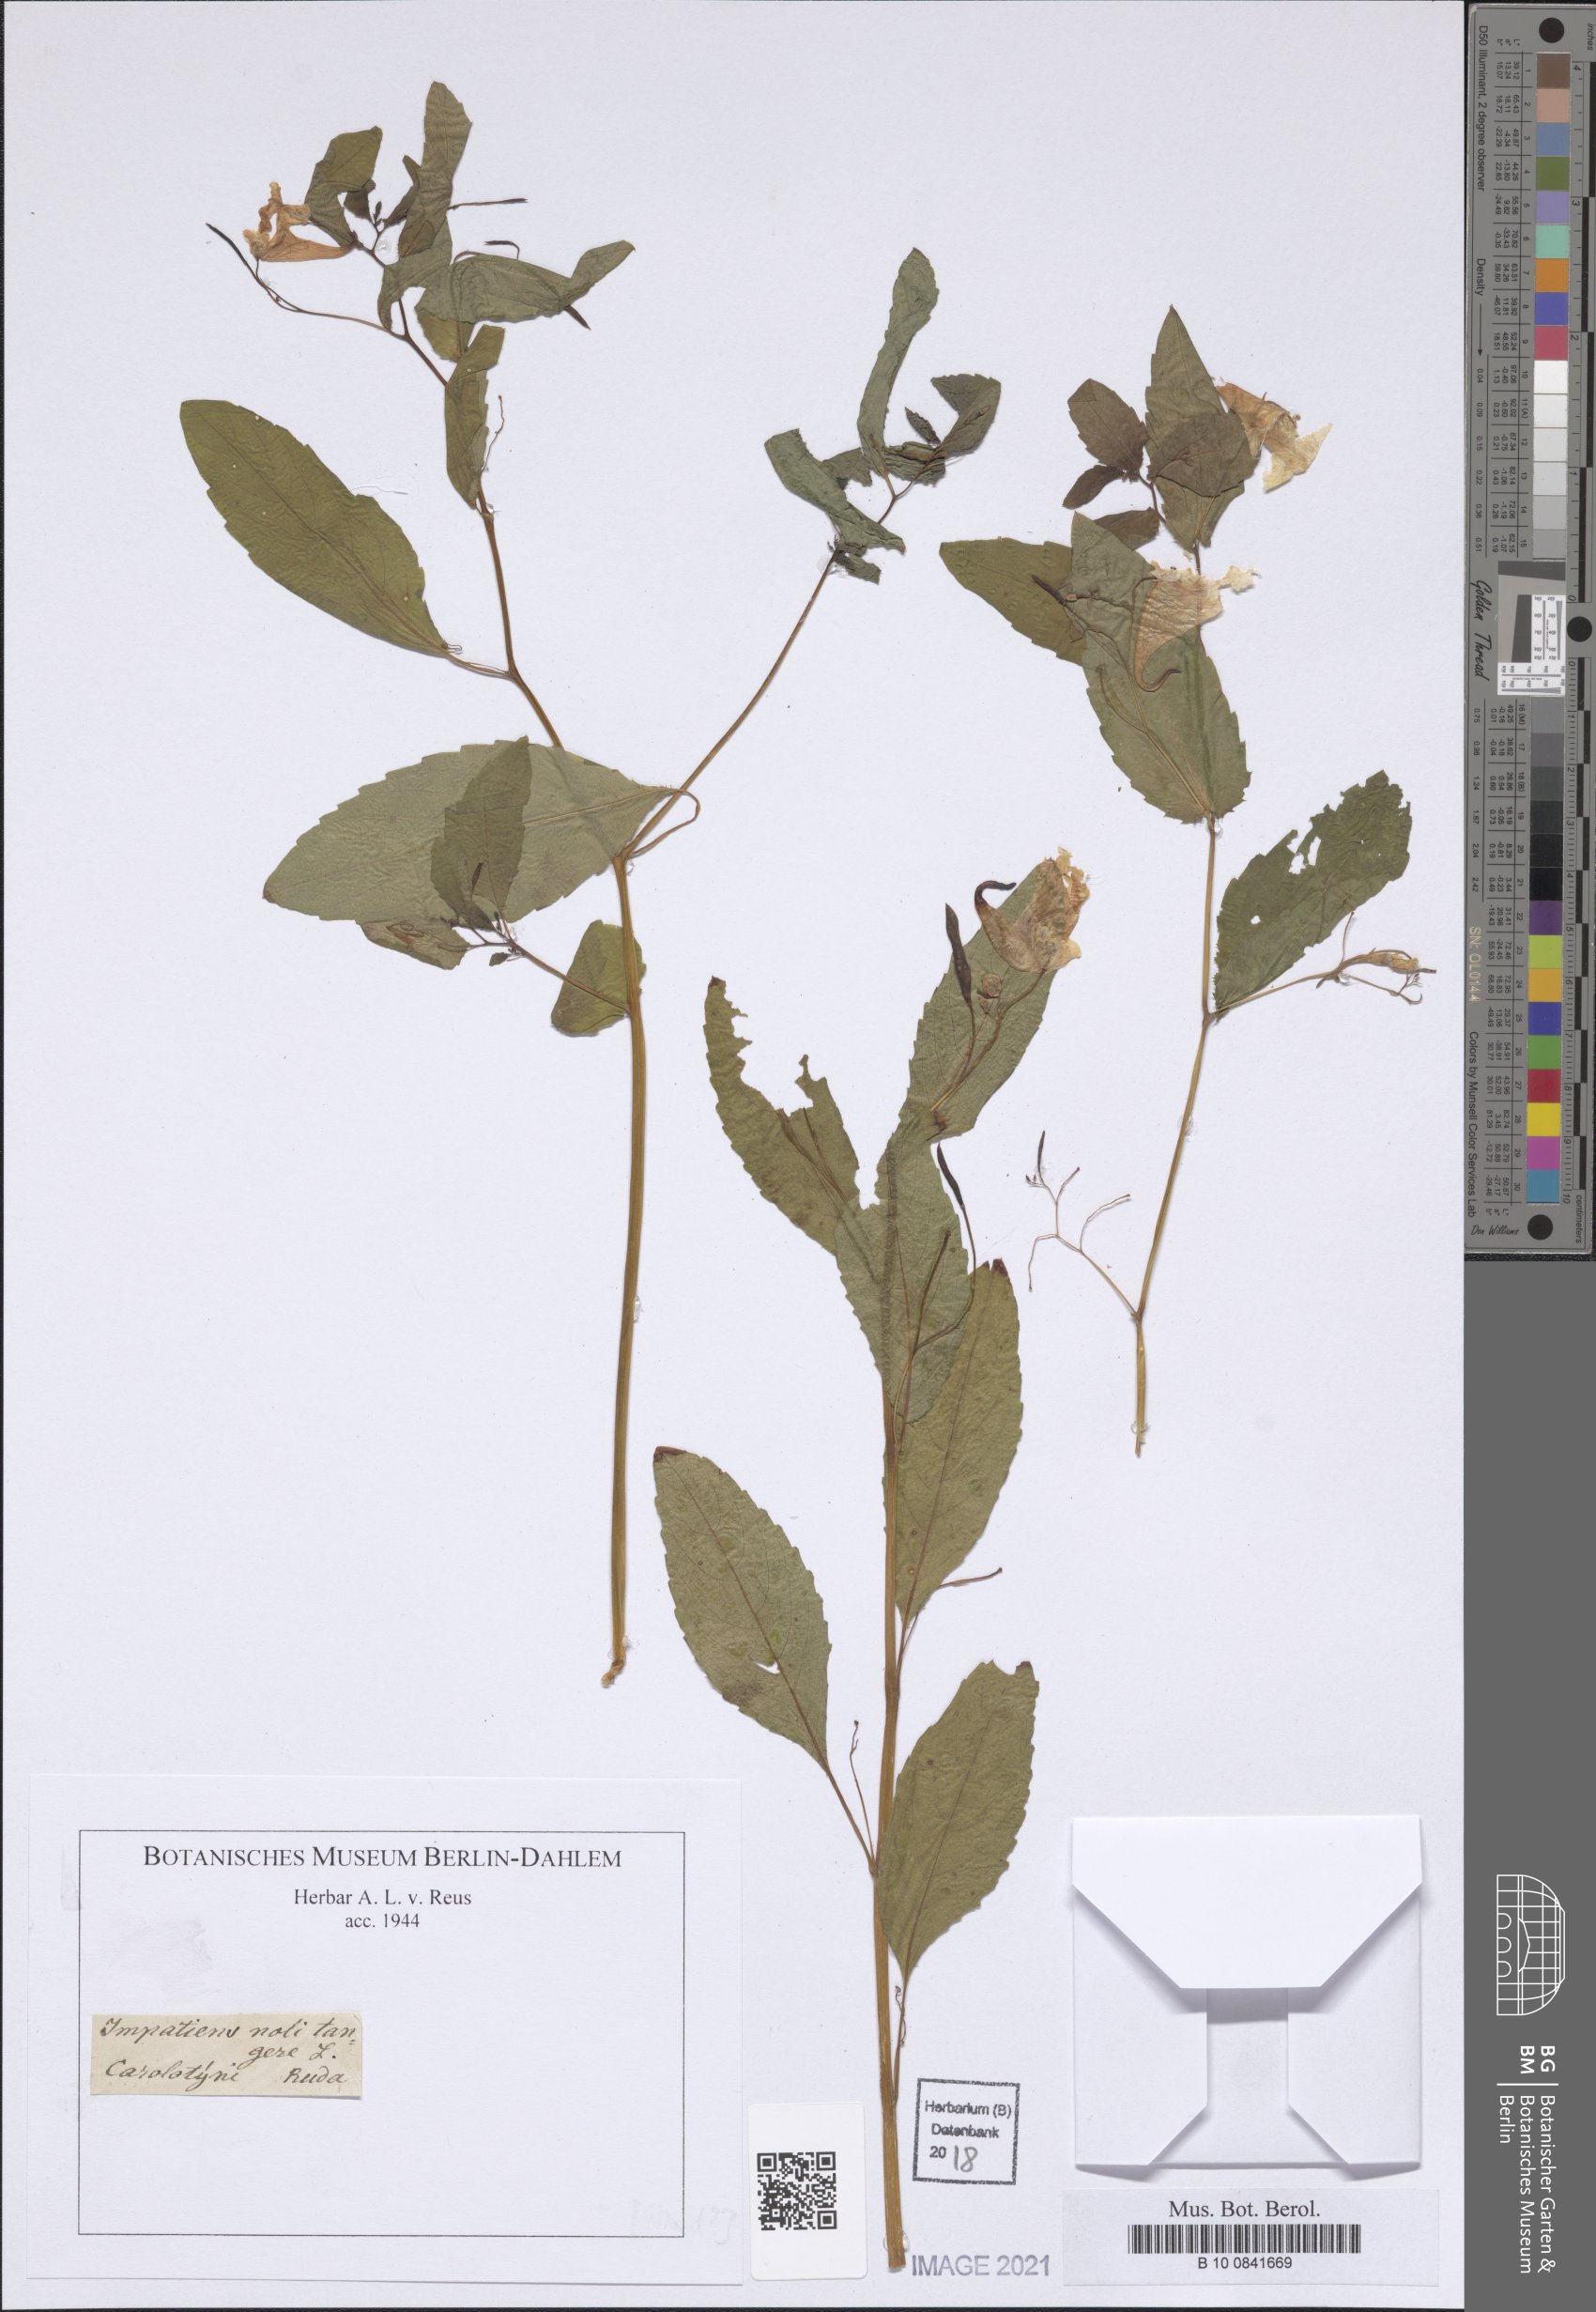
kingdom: Plantae
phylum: Tracheophyta
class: Magnoliopsida
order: Ericales
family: Balsaminaceae
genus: Impatiens
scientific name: Impatiens noli-tangere
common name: Touch-me-not balsam
